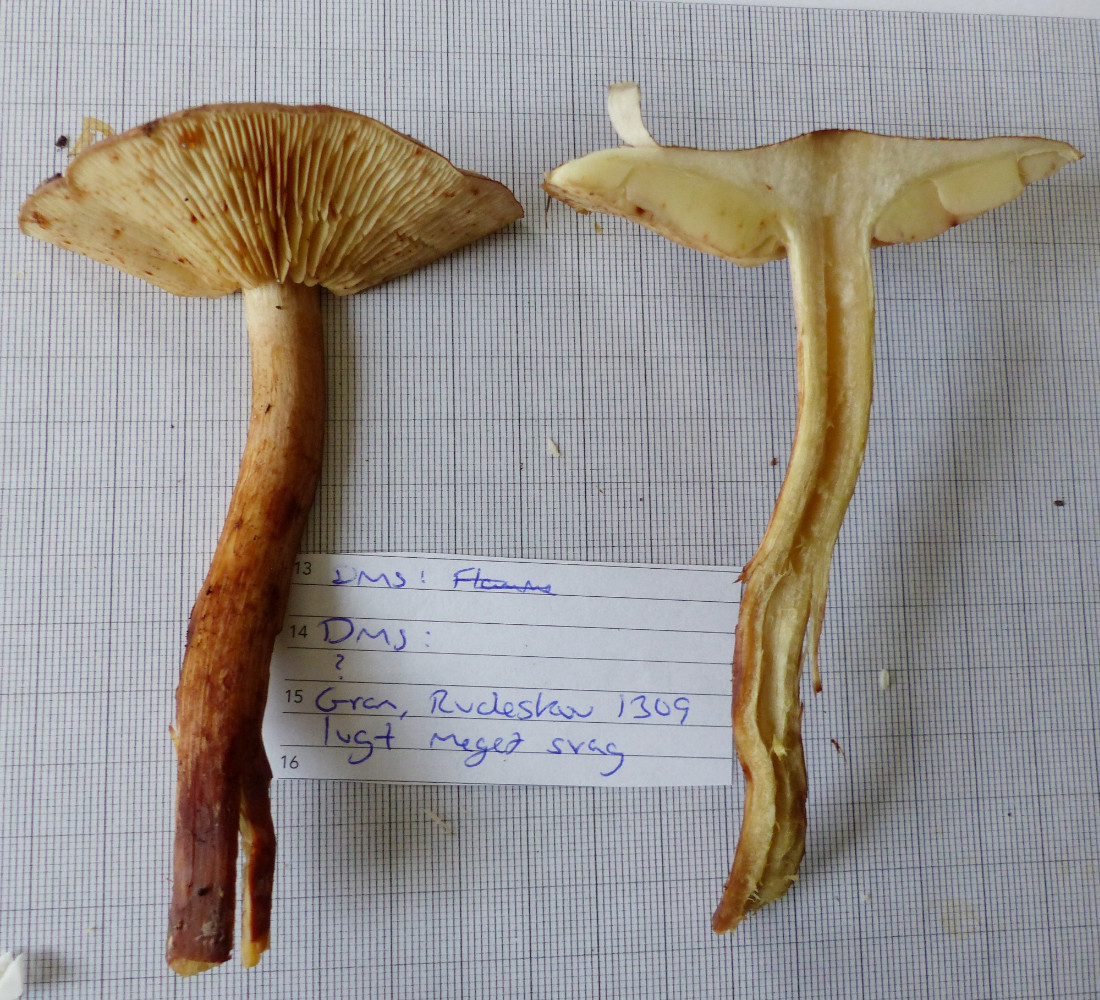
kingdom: Fungi
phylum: Basidiomycota
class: Agaricomycetes
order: Agaricales
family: Tricholomataceae
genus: Tricholoma
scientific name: Tricholoma fulvum
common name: birke-ridderhat
